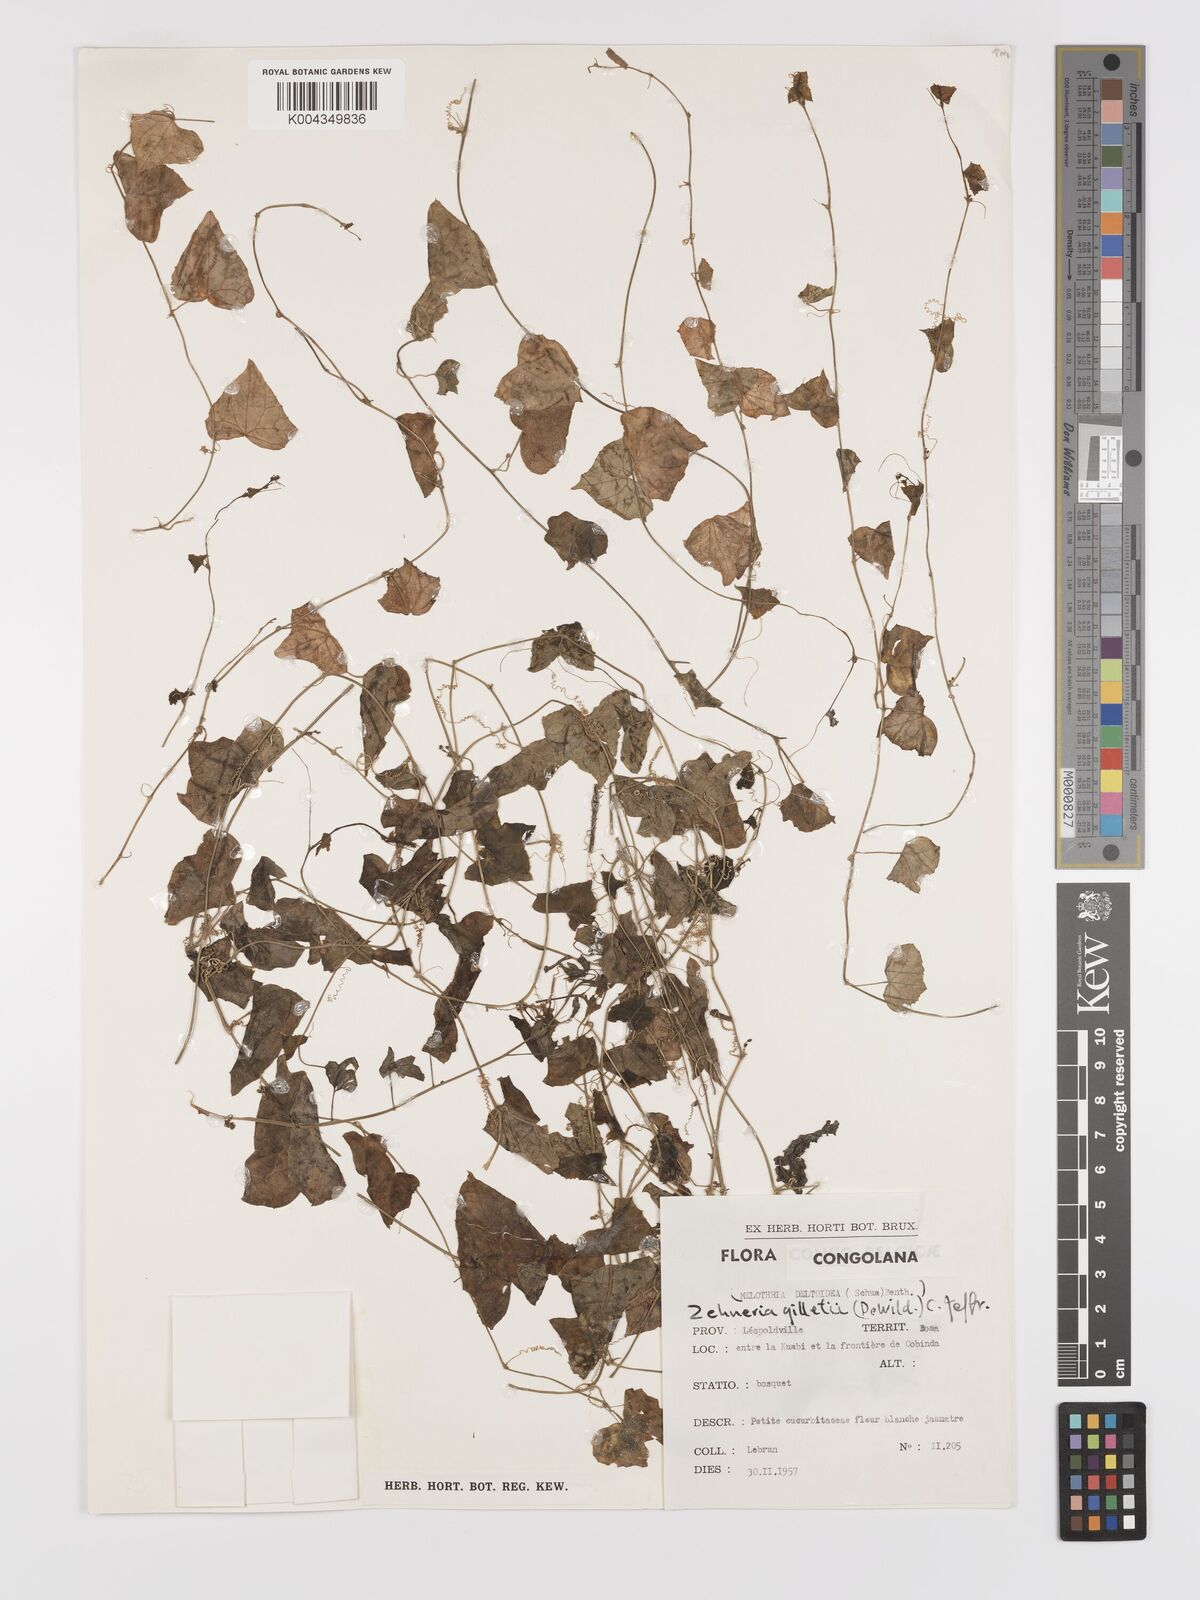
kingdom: Plantae
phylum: Tracheophyta
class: Magnoliopsida
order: Cucurbitales
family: Cucurbitaceae
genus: Zehneria
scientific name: Zehneria gilletii
